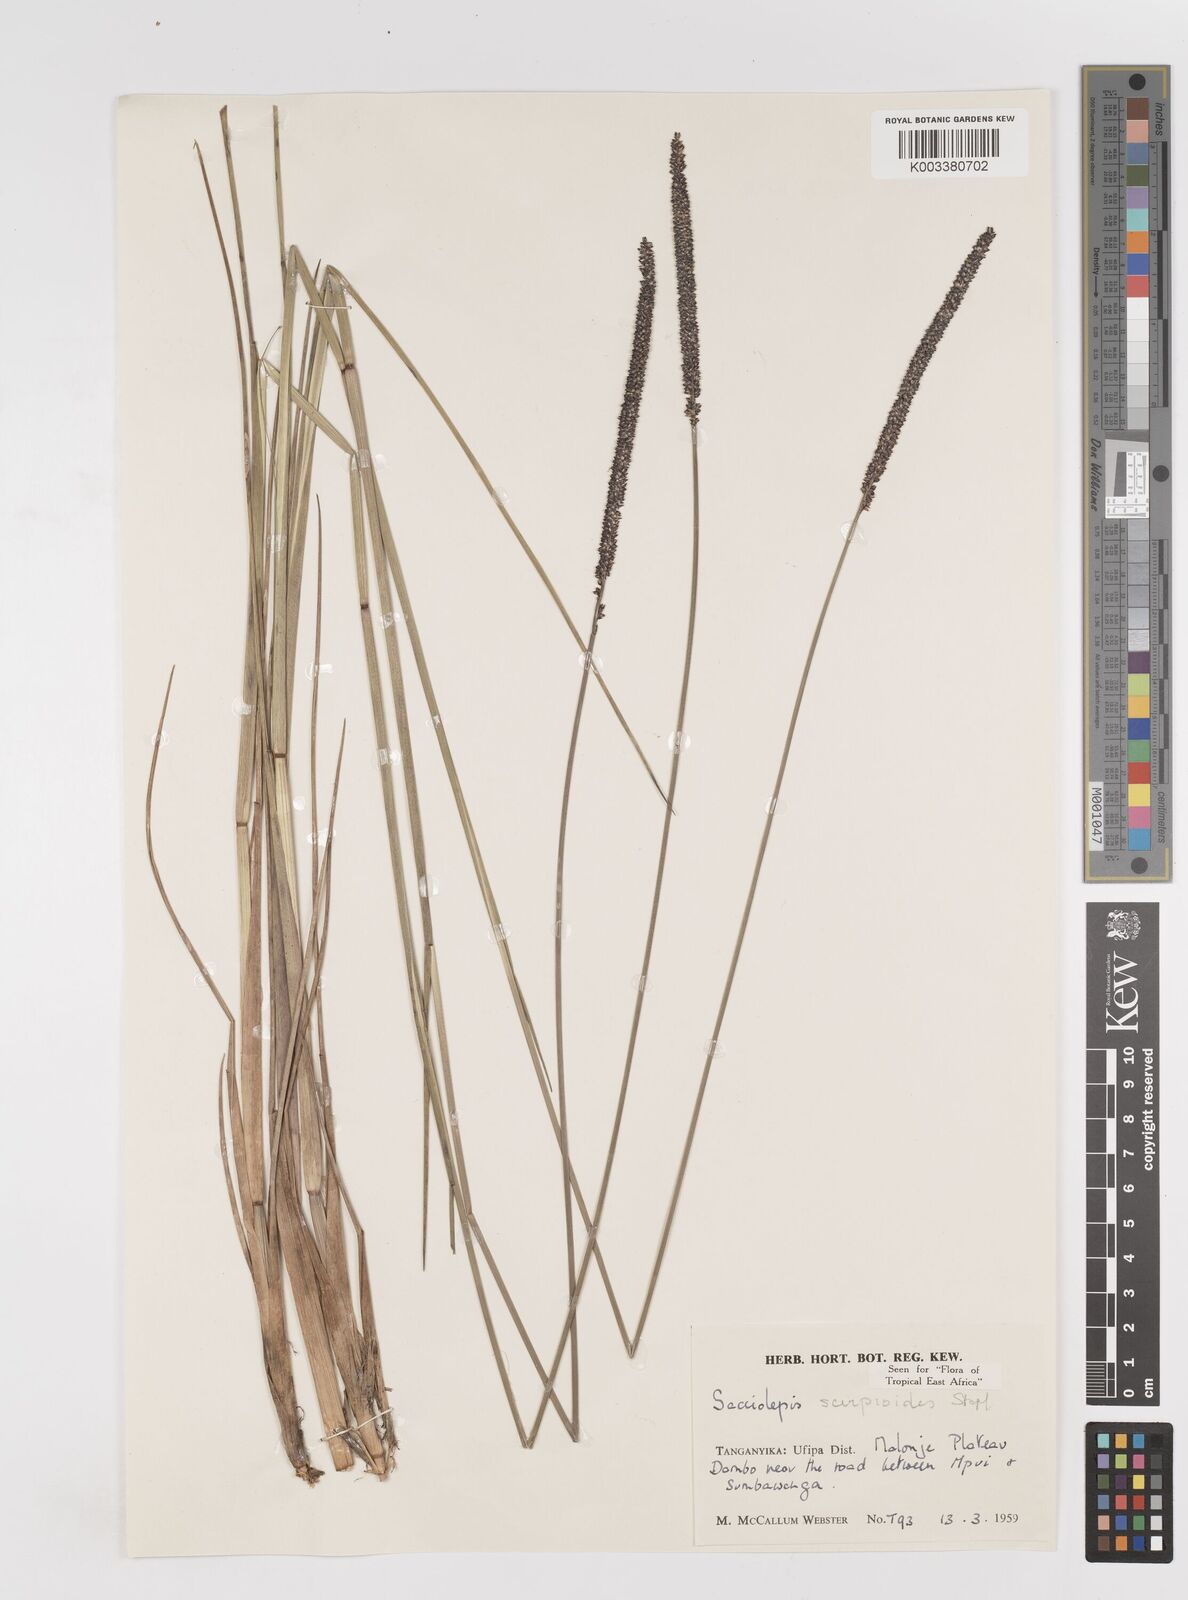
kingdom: Plantae
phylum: Tracheophyta
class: Liliopsida
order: Poales
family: Poaceae
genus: Sacciolepis
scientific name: Sacciolepis typhura
